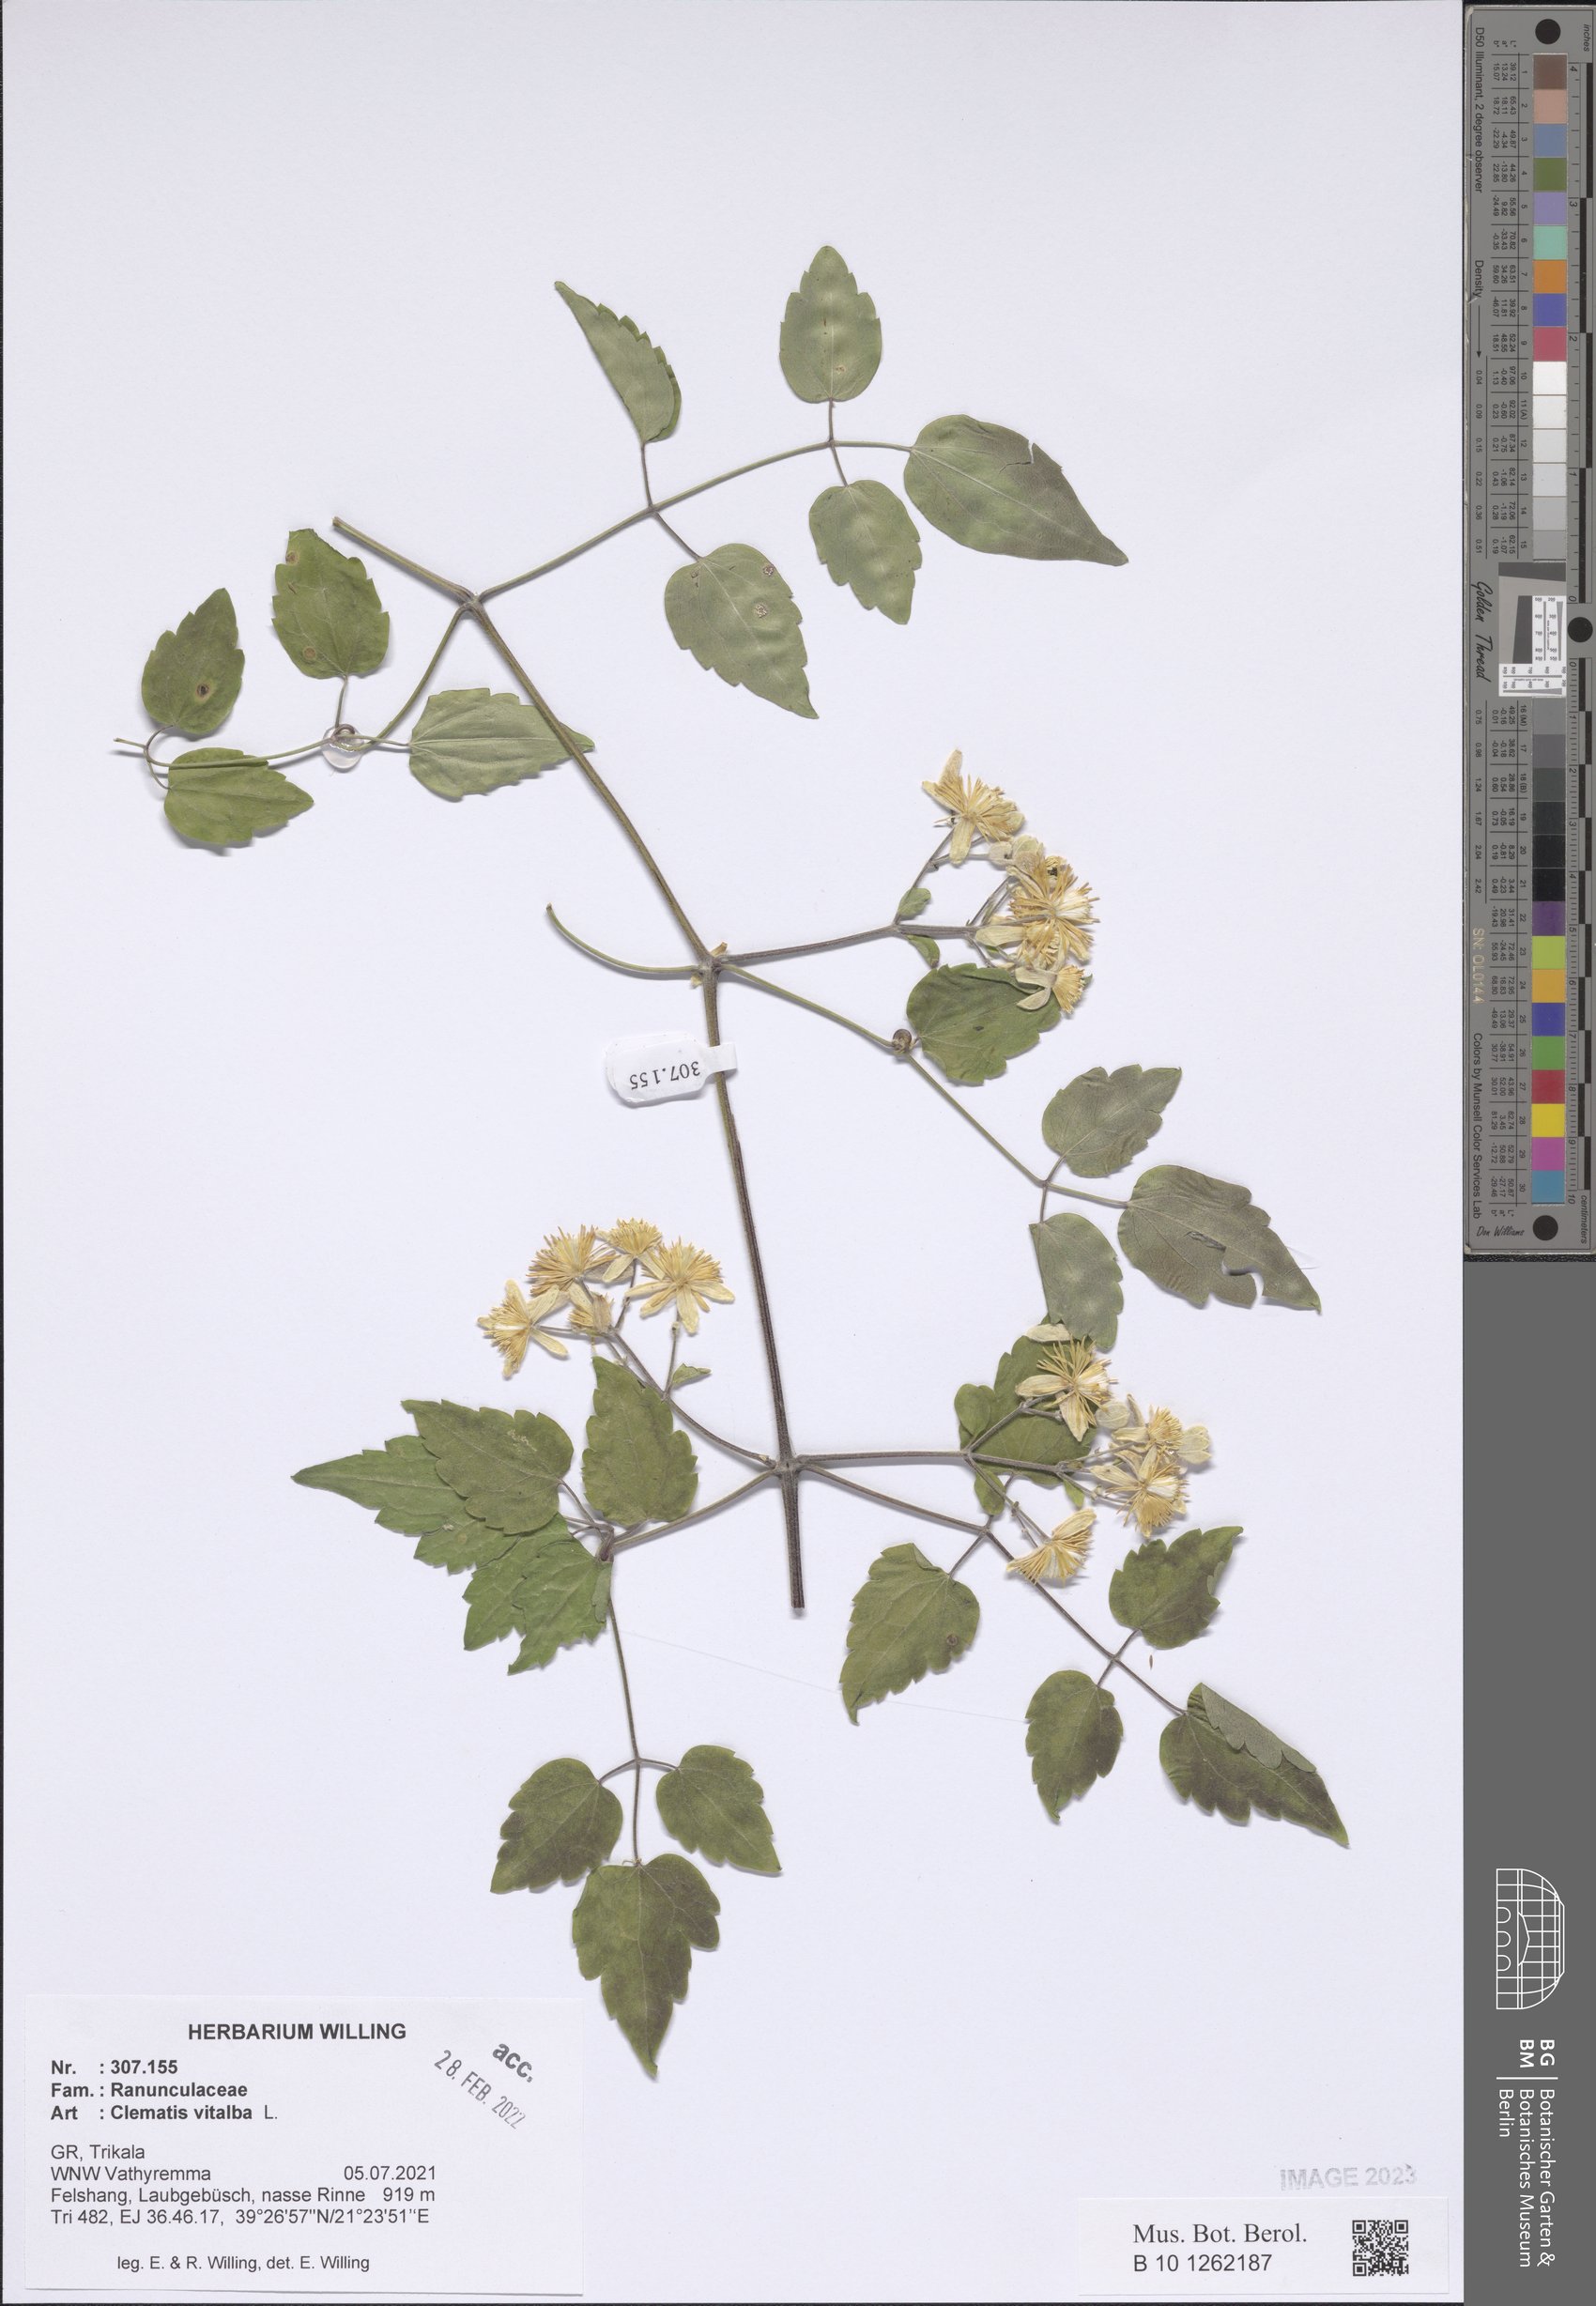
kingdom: Plantae
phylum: Tracheophyta
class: Magnoliopsida
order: Ranunculales
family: Ranunculaceae
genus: Clematis
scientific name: Clematis vitalba
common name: Evergreen clematis
